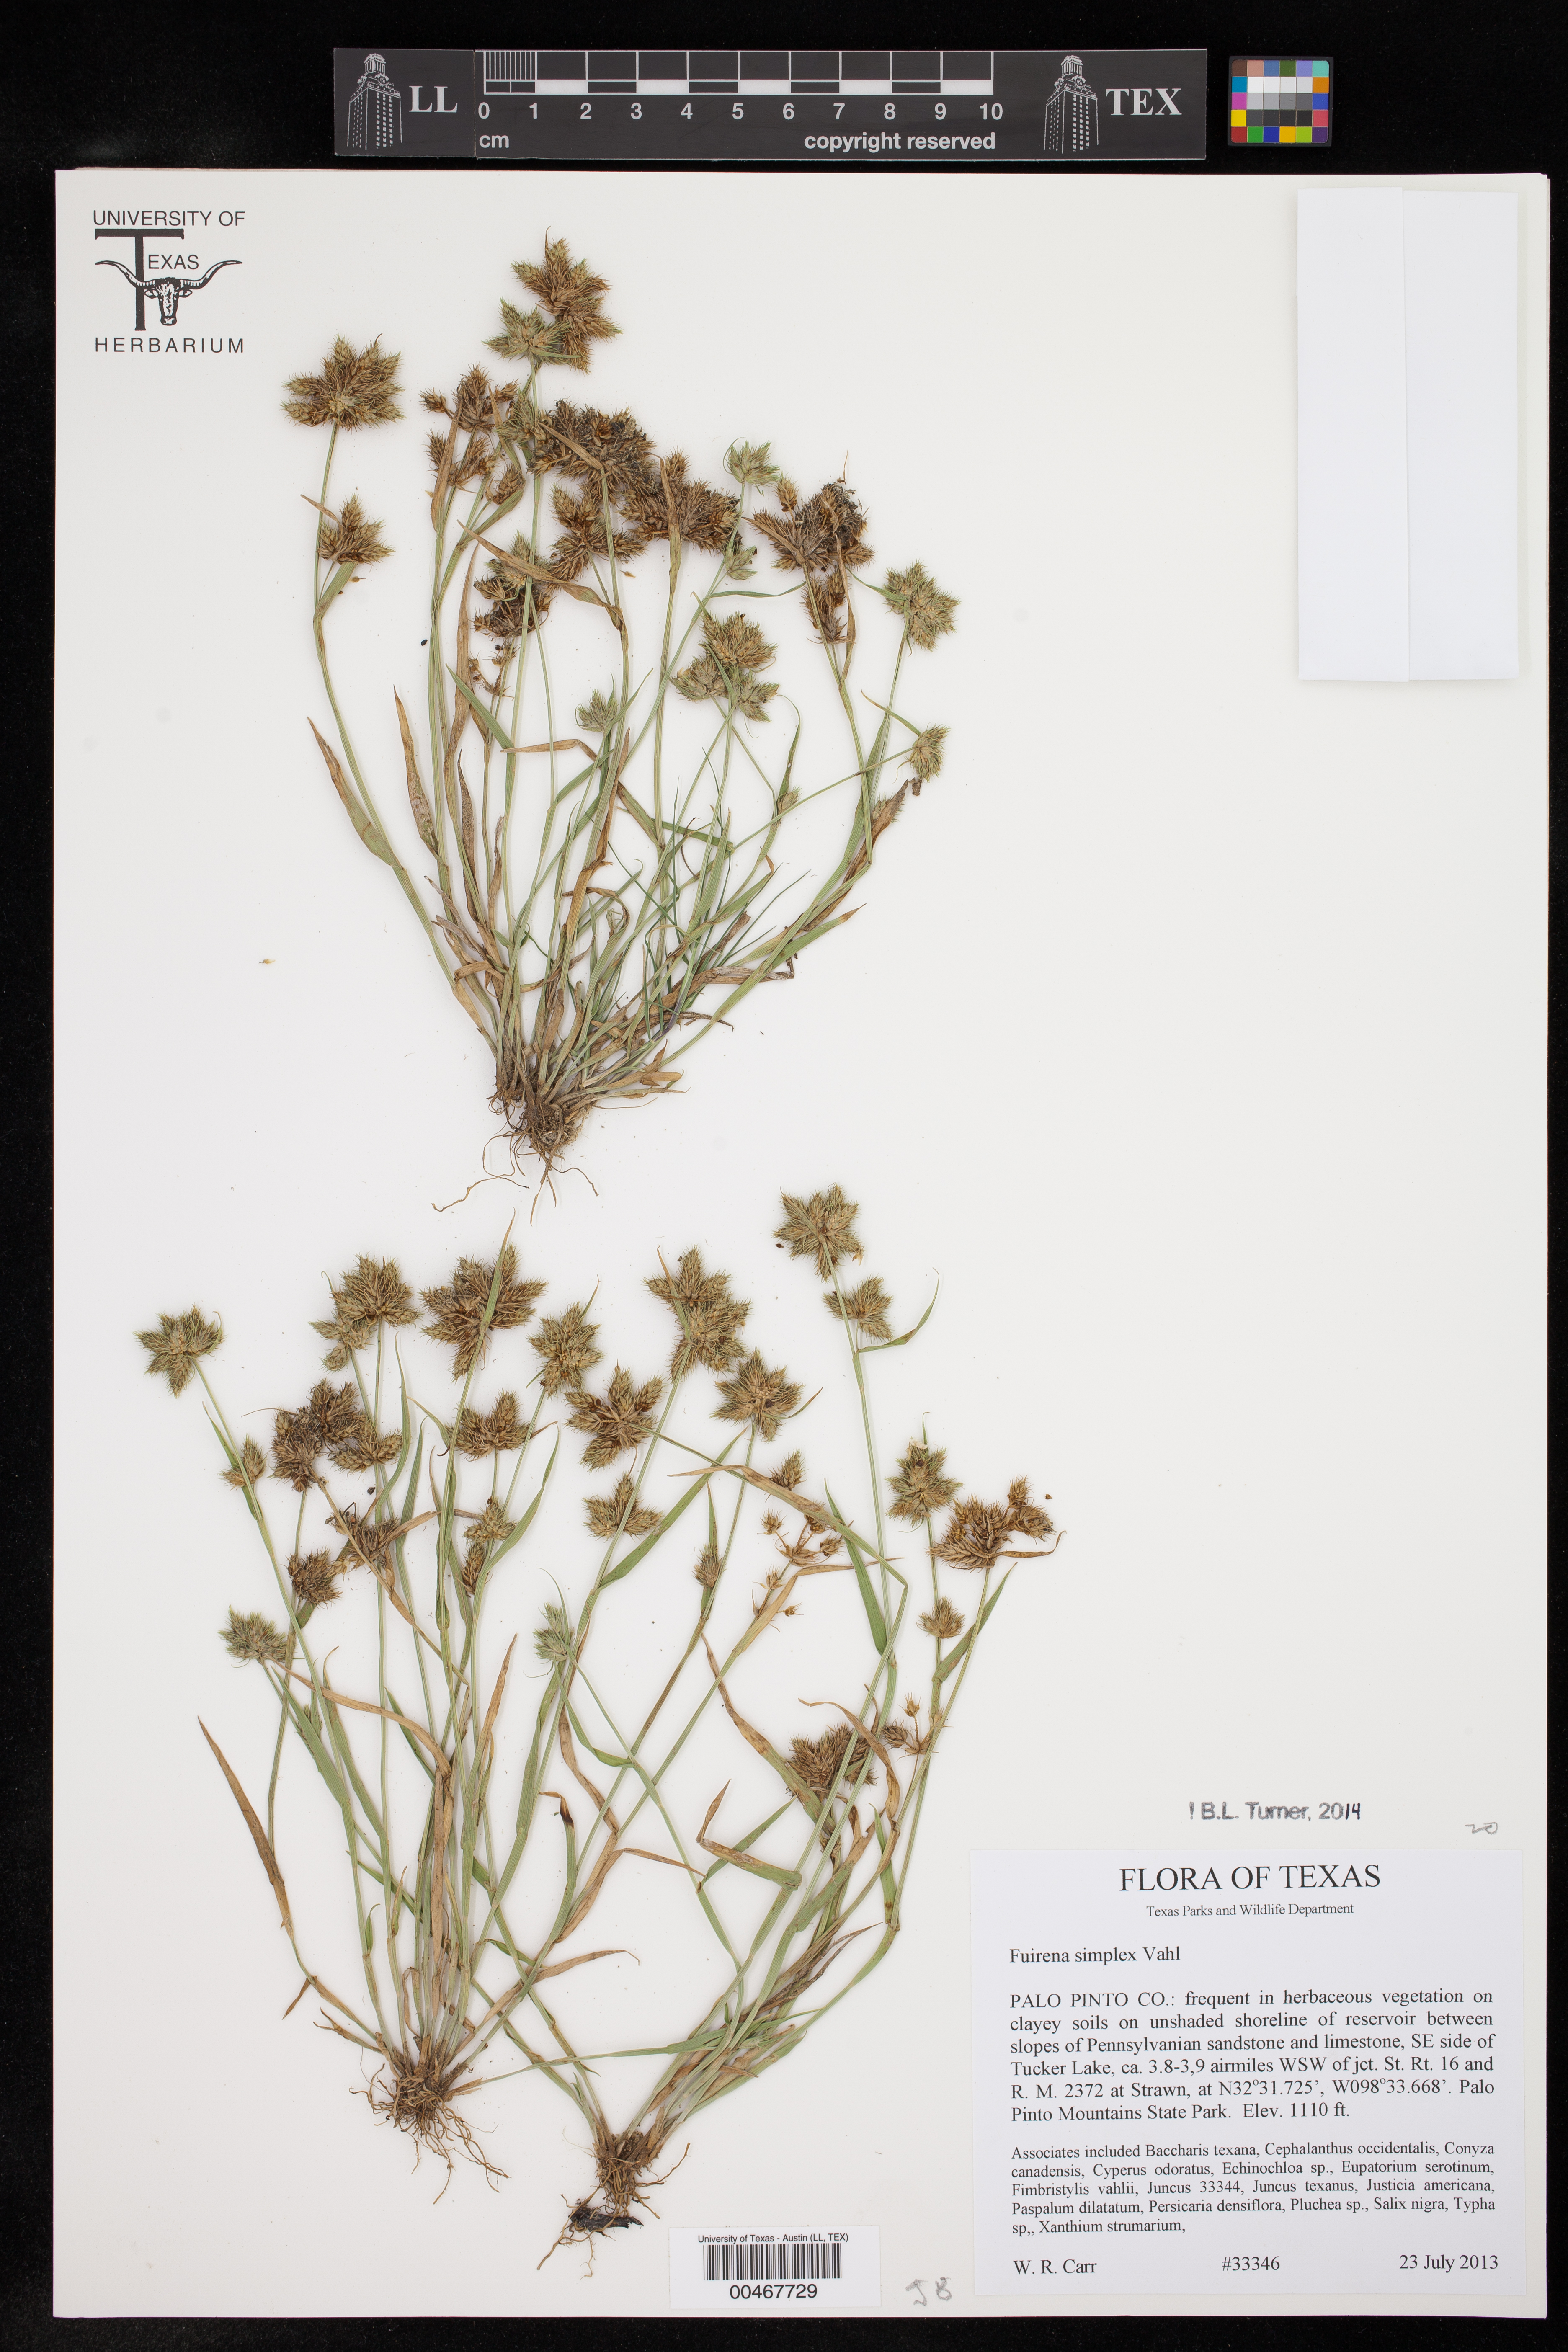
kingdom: Plantae
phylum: Tracheophyta
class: Liliopsida
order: Poales
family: Cyperaceae
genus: Fuirena
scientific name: Fuirena simplex
